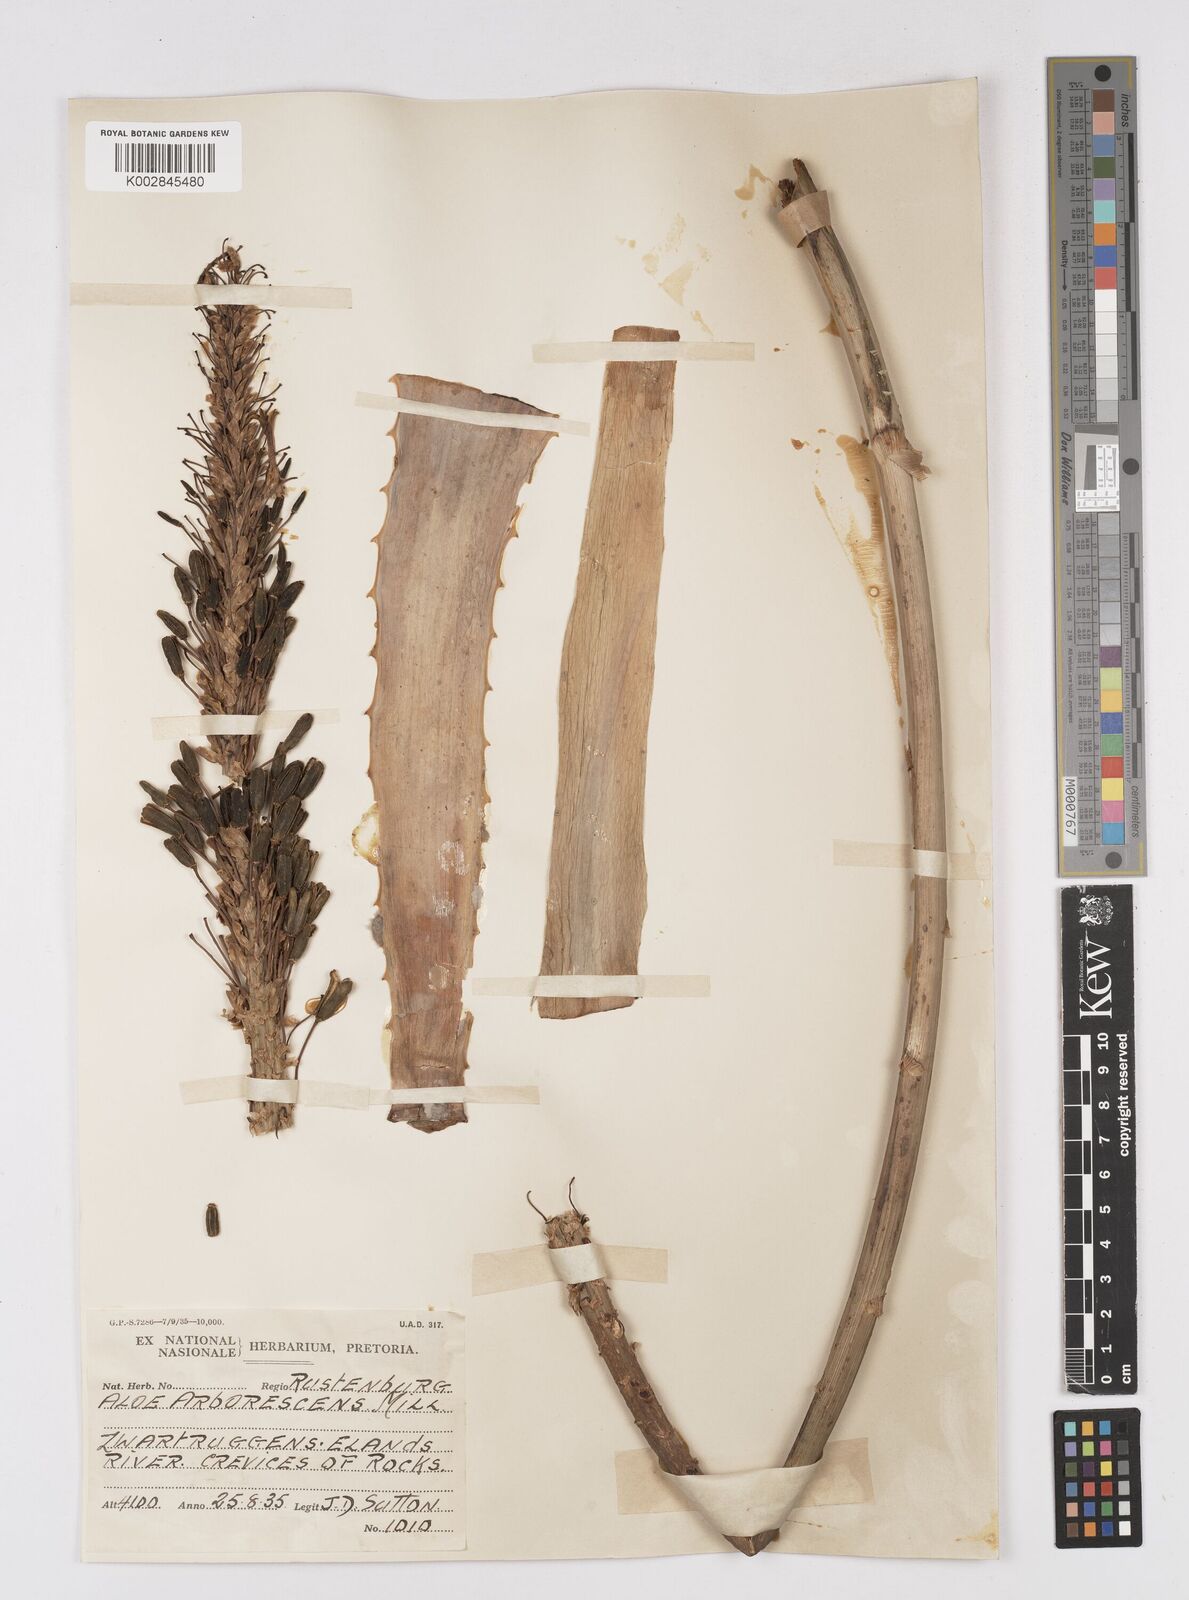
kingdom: Plantae
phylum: Tracheophyta
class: Liliopsida
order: Asparagales
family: Asphodelaceae
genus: Aloe
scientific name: Aloe arborescens
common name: Candelabra aloe
